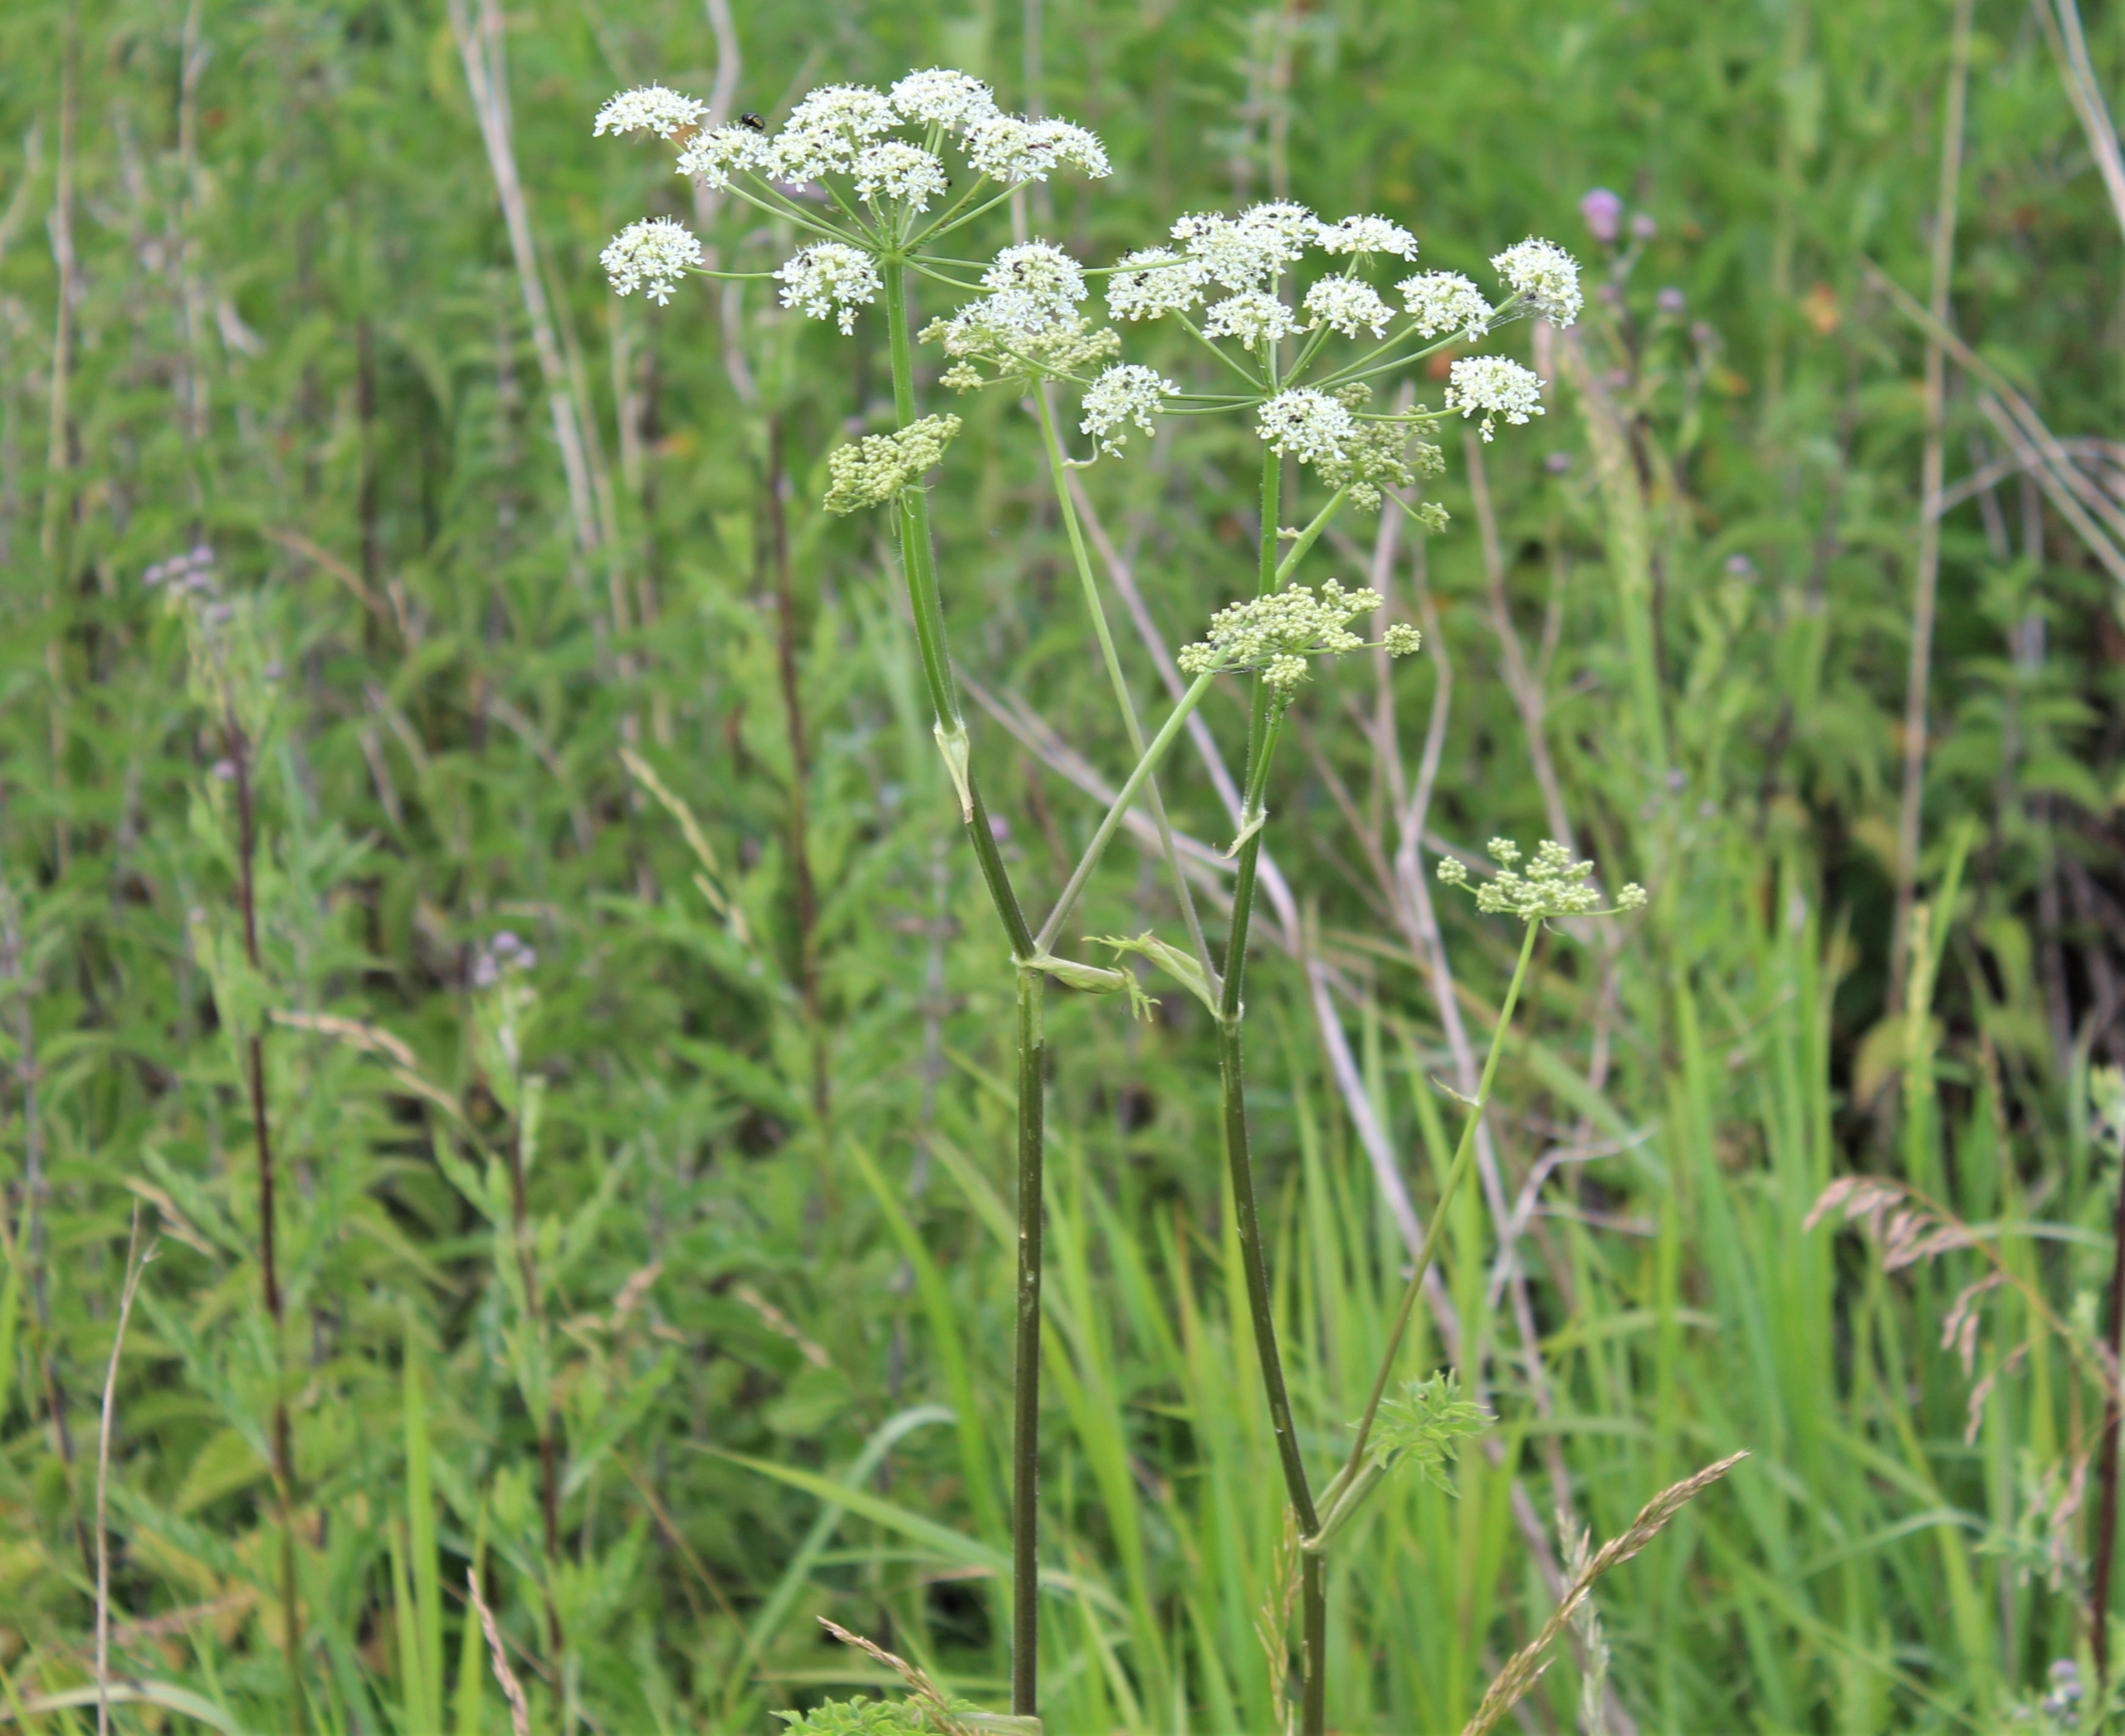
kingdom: Plantae
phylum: Tracheophyta
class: Magnoliopsida
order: Apiales
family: Apiaceae
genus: Heracleum
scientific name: Heracleum sphondylium
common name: Almindelig bjørneklo
